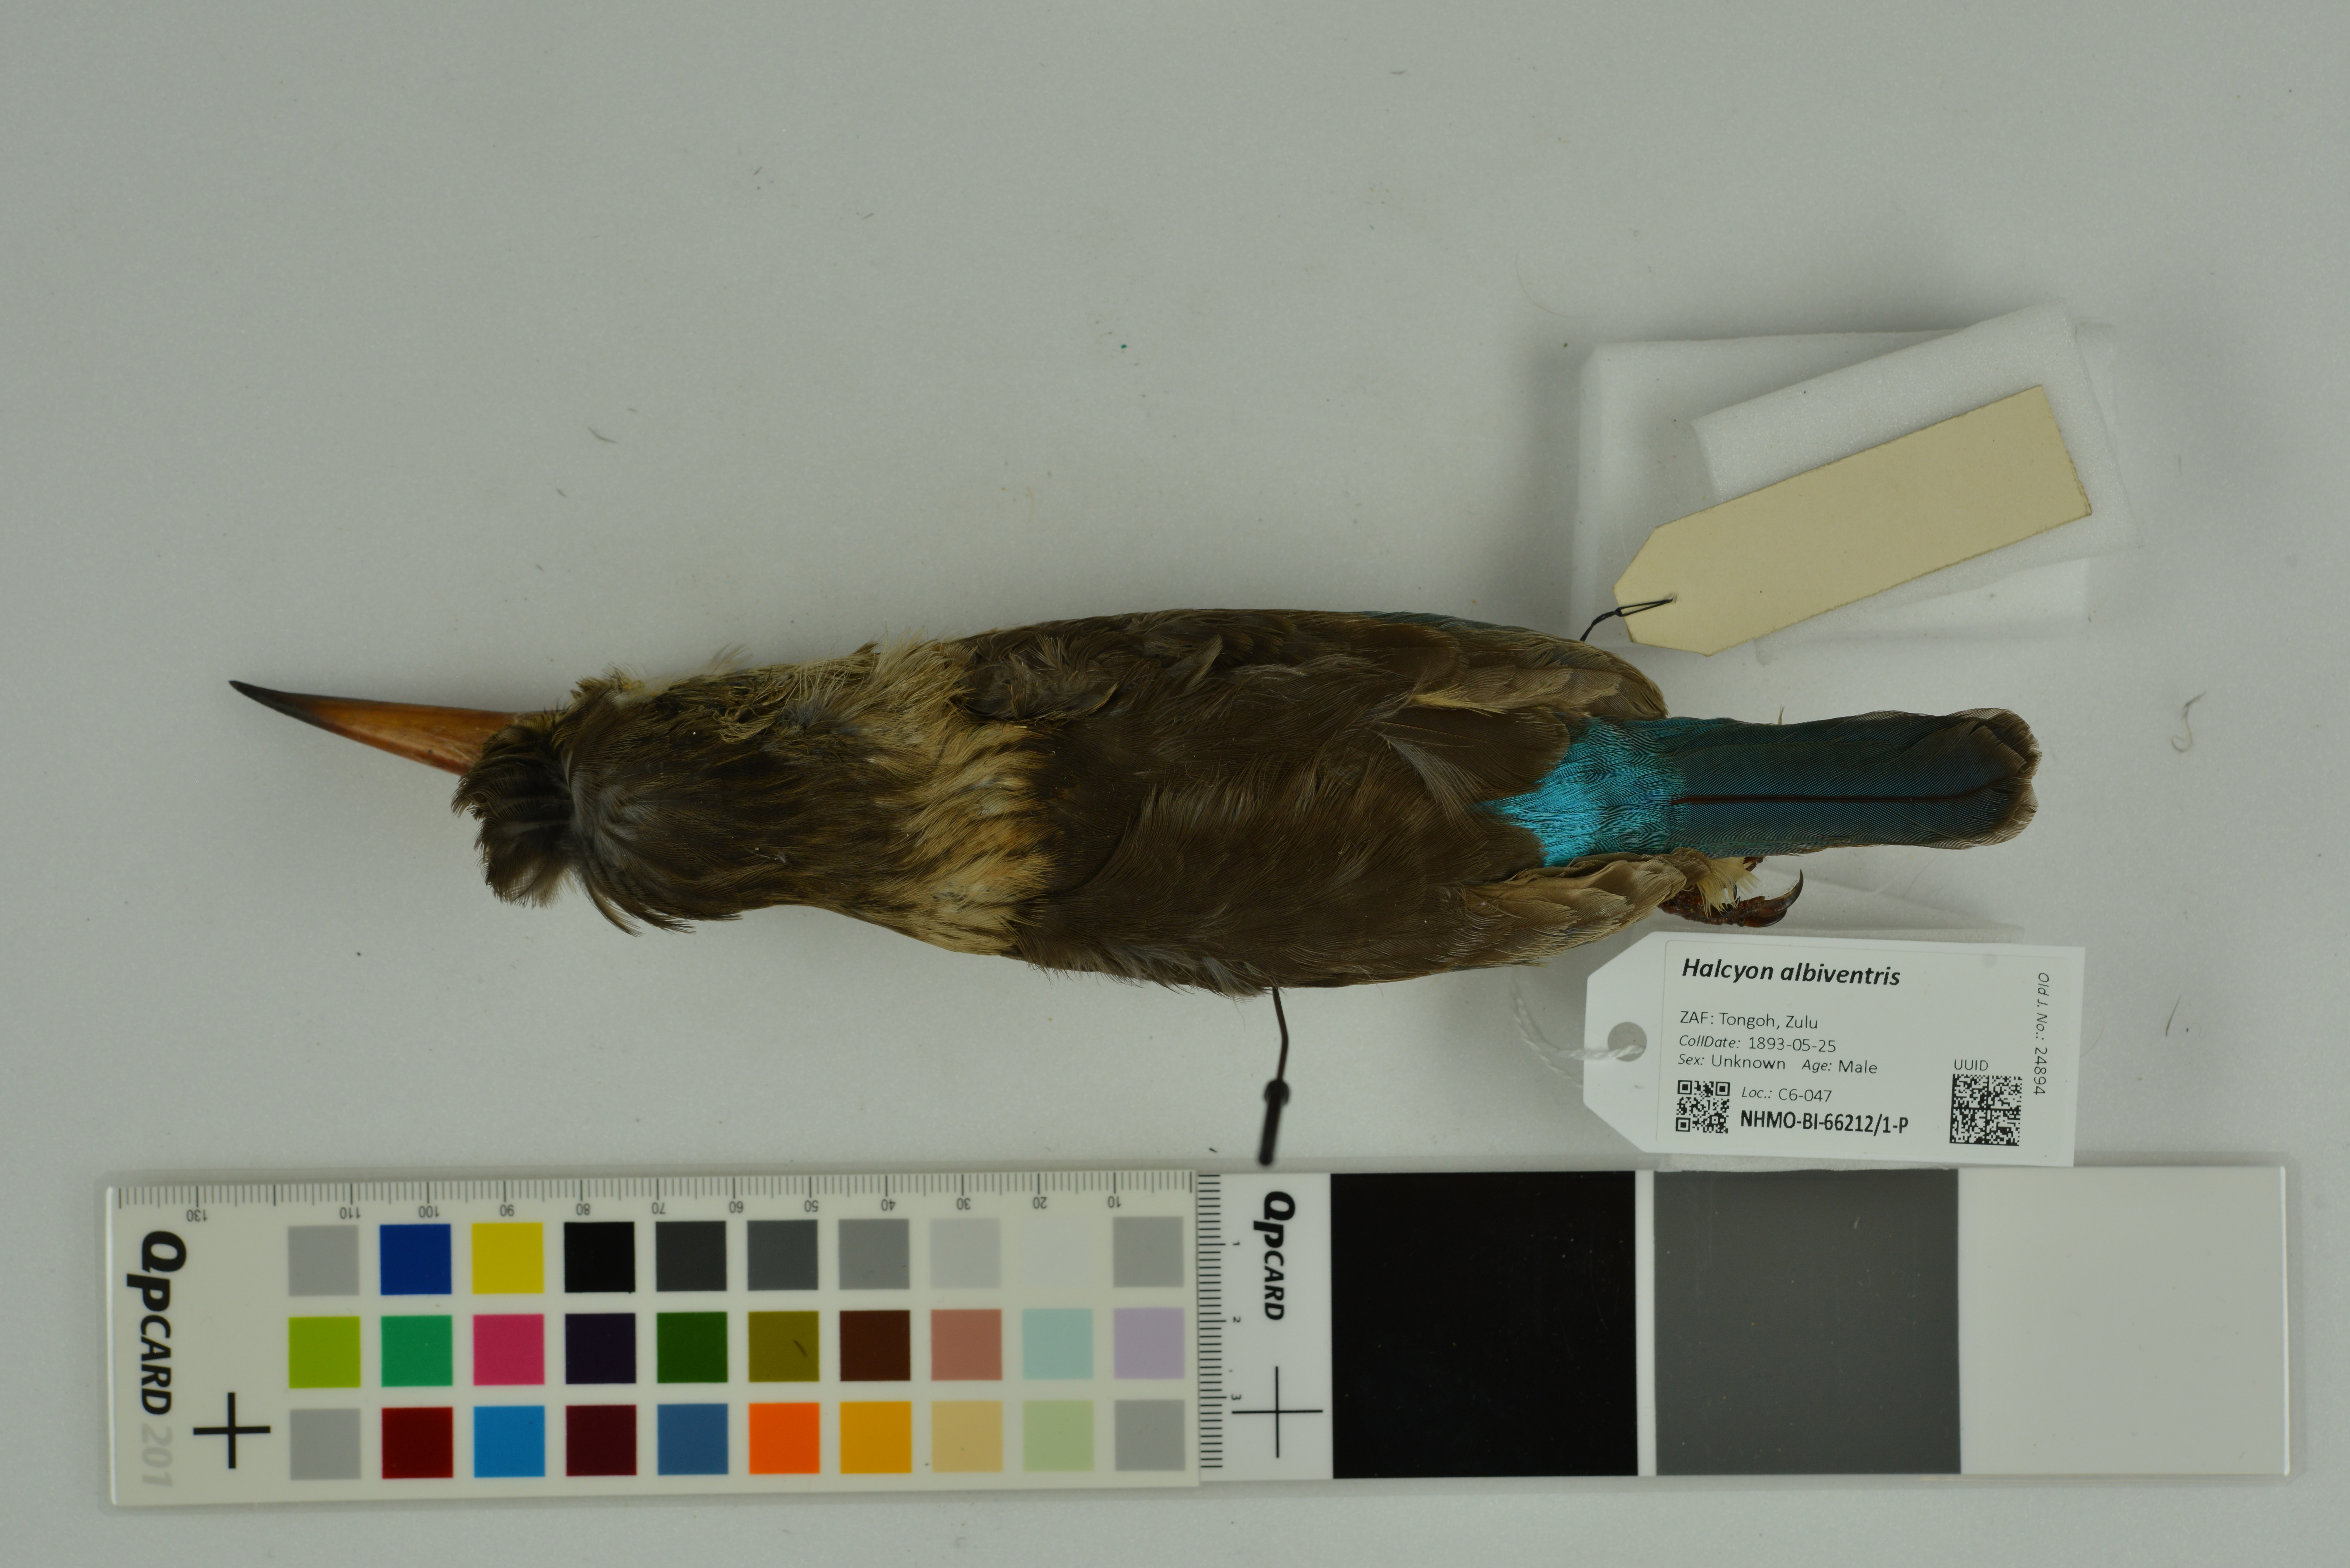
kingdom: Animalia
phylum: Chordata
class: Aves
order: Coraciiformes
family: Alcedinidae
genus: Halcyon
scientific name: Halcyon albiventris
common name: Brown-hooded kingfisher
